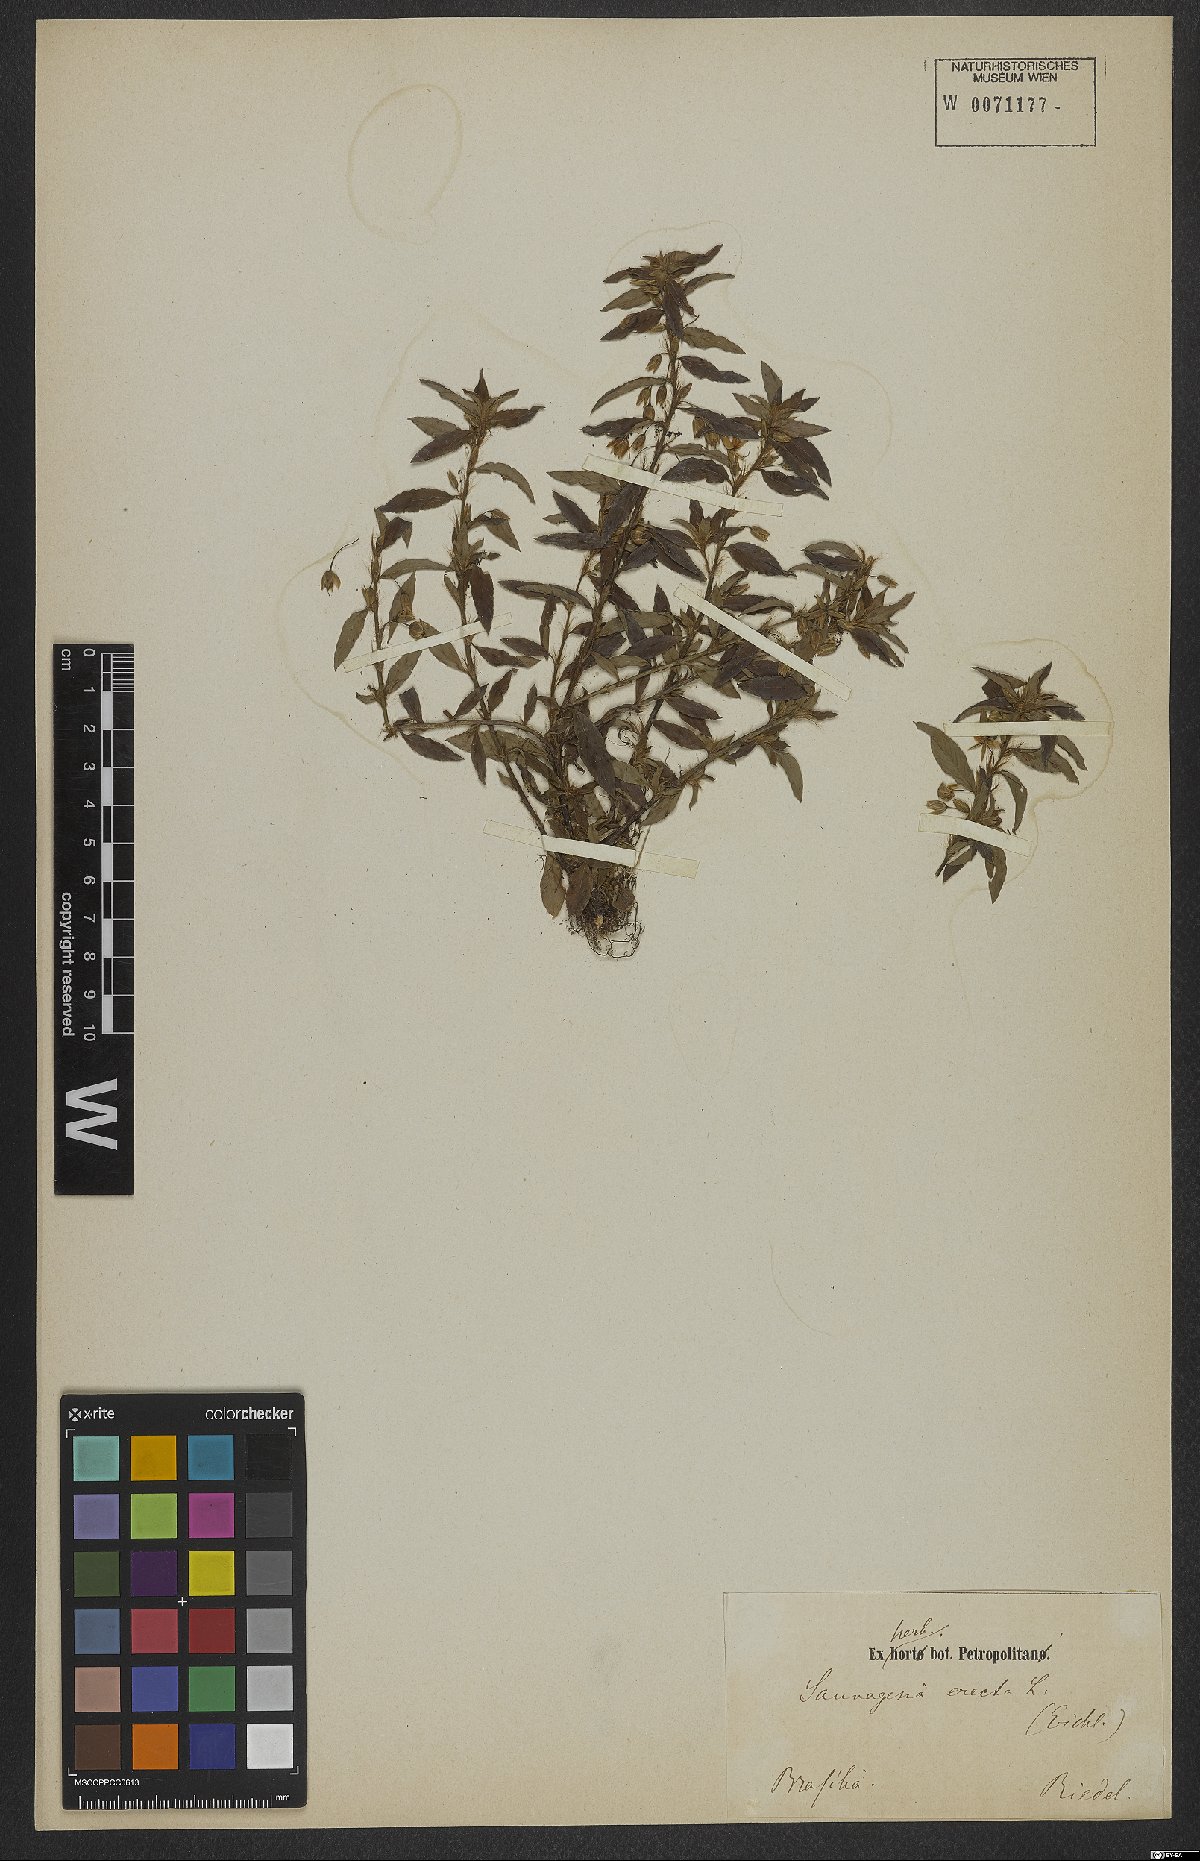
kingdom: Plantae
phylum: Tracheophyta
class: Magnoliopsida
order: Malpighiales
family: Ochnaceae
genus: Sauvagesia
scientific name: Sauvagesia erecta
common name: Creole tea
